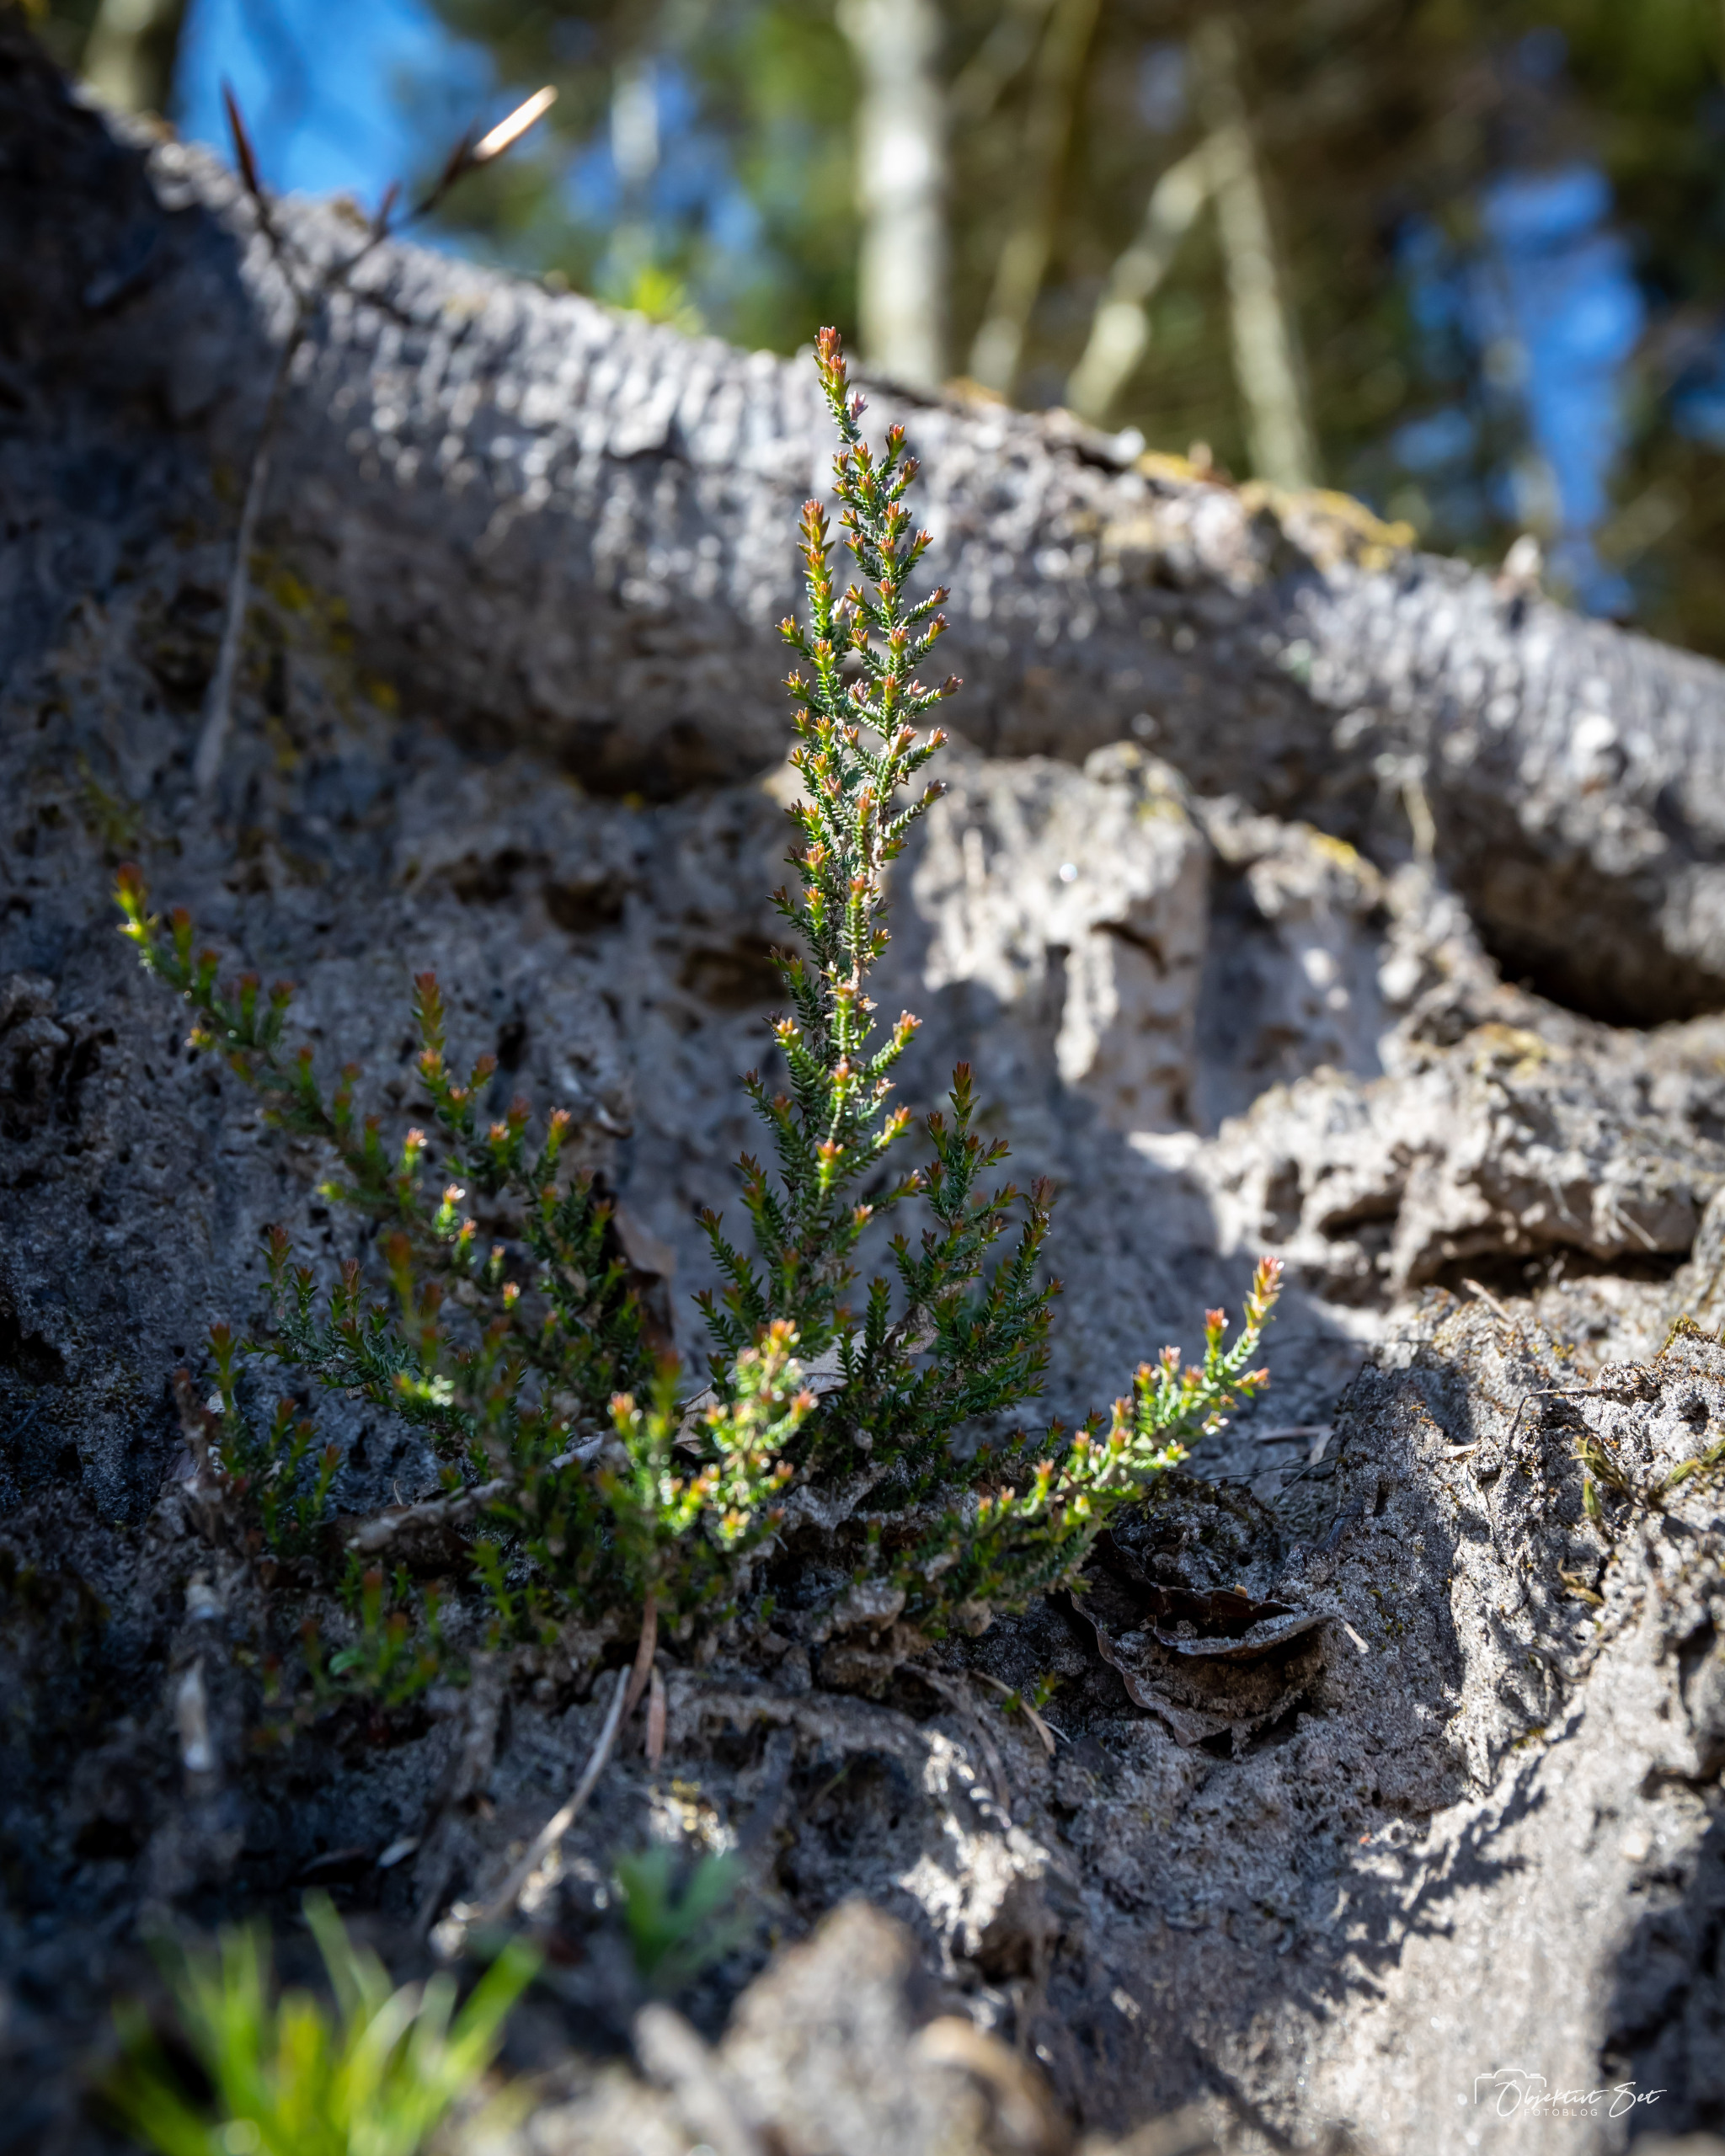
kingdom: Plantae
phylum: Tracheophyta
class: Magnoliopsida
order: Ericales
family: Ericaceae
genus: Calluna
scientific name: Calluna vulgaris
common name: Hedelyng
